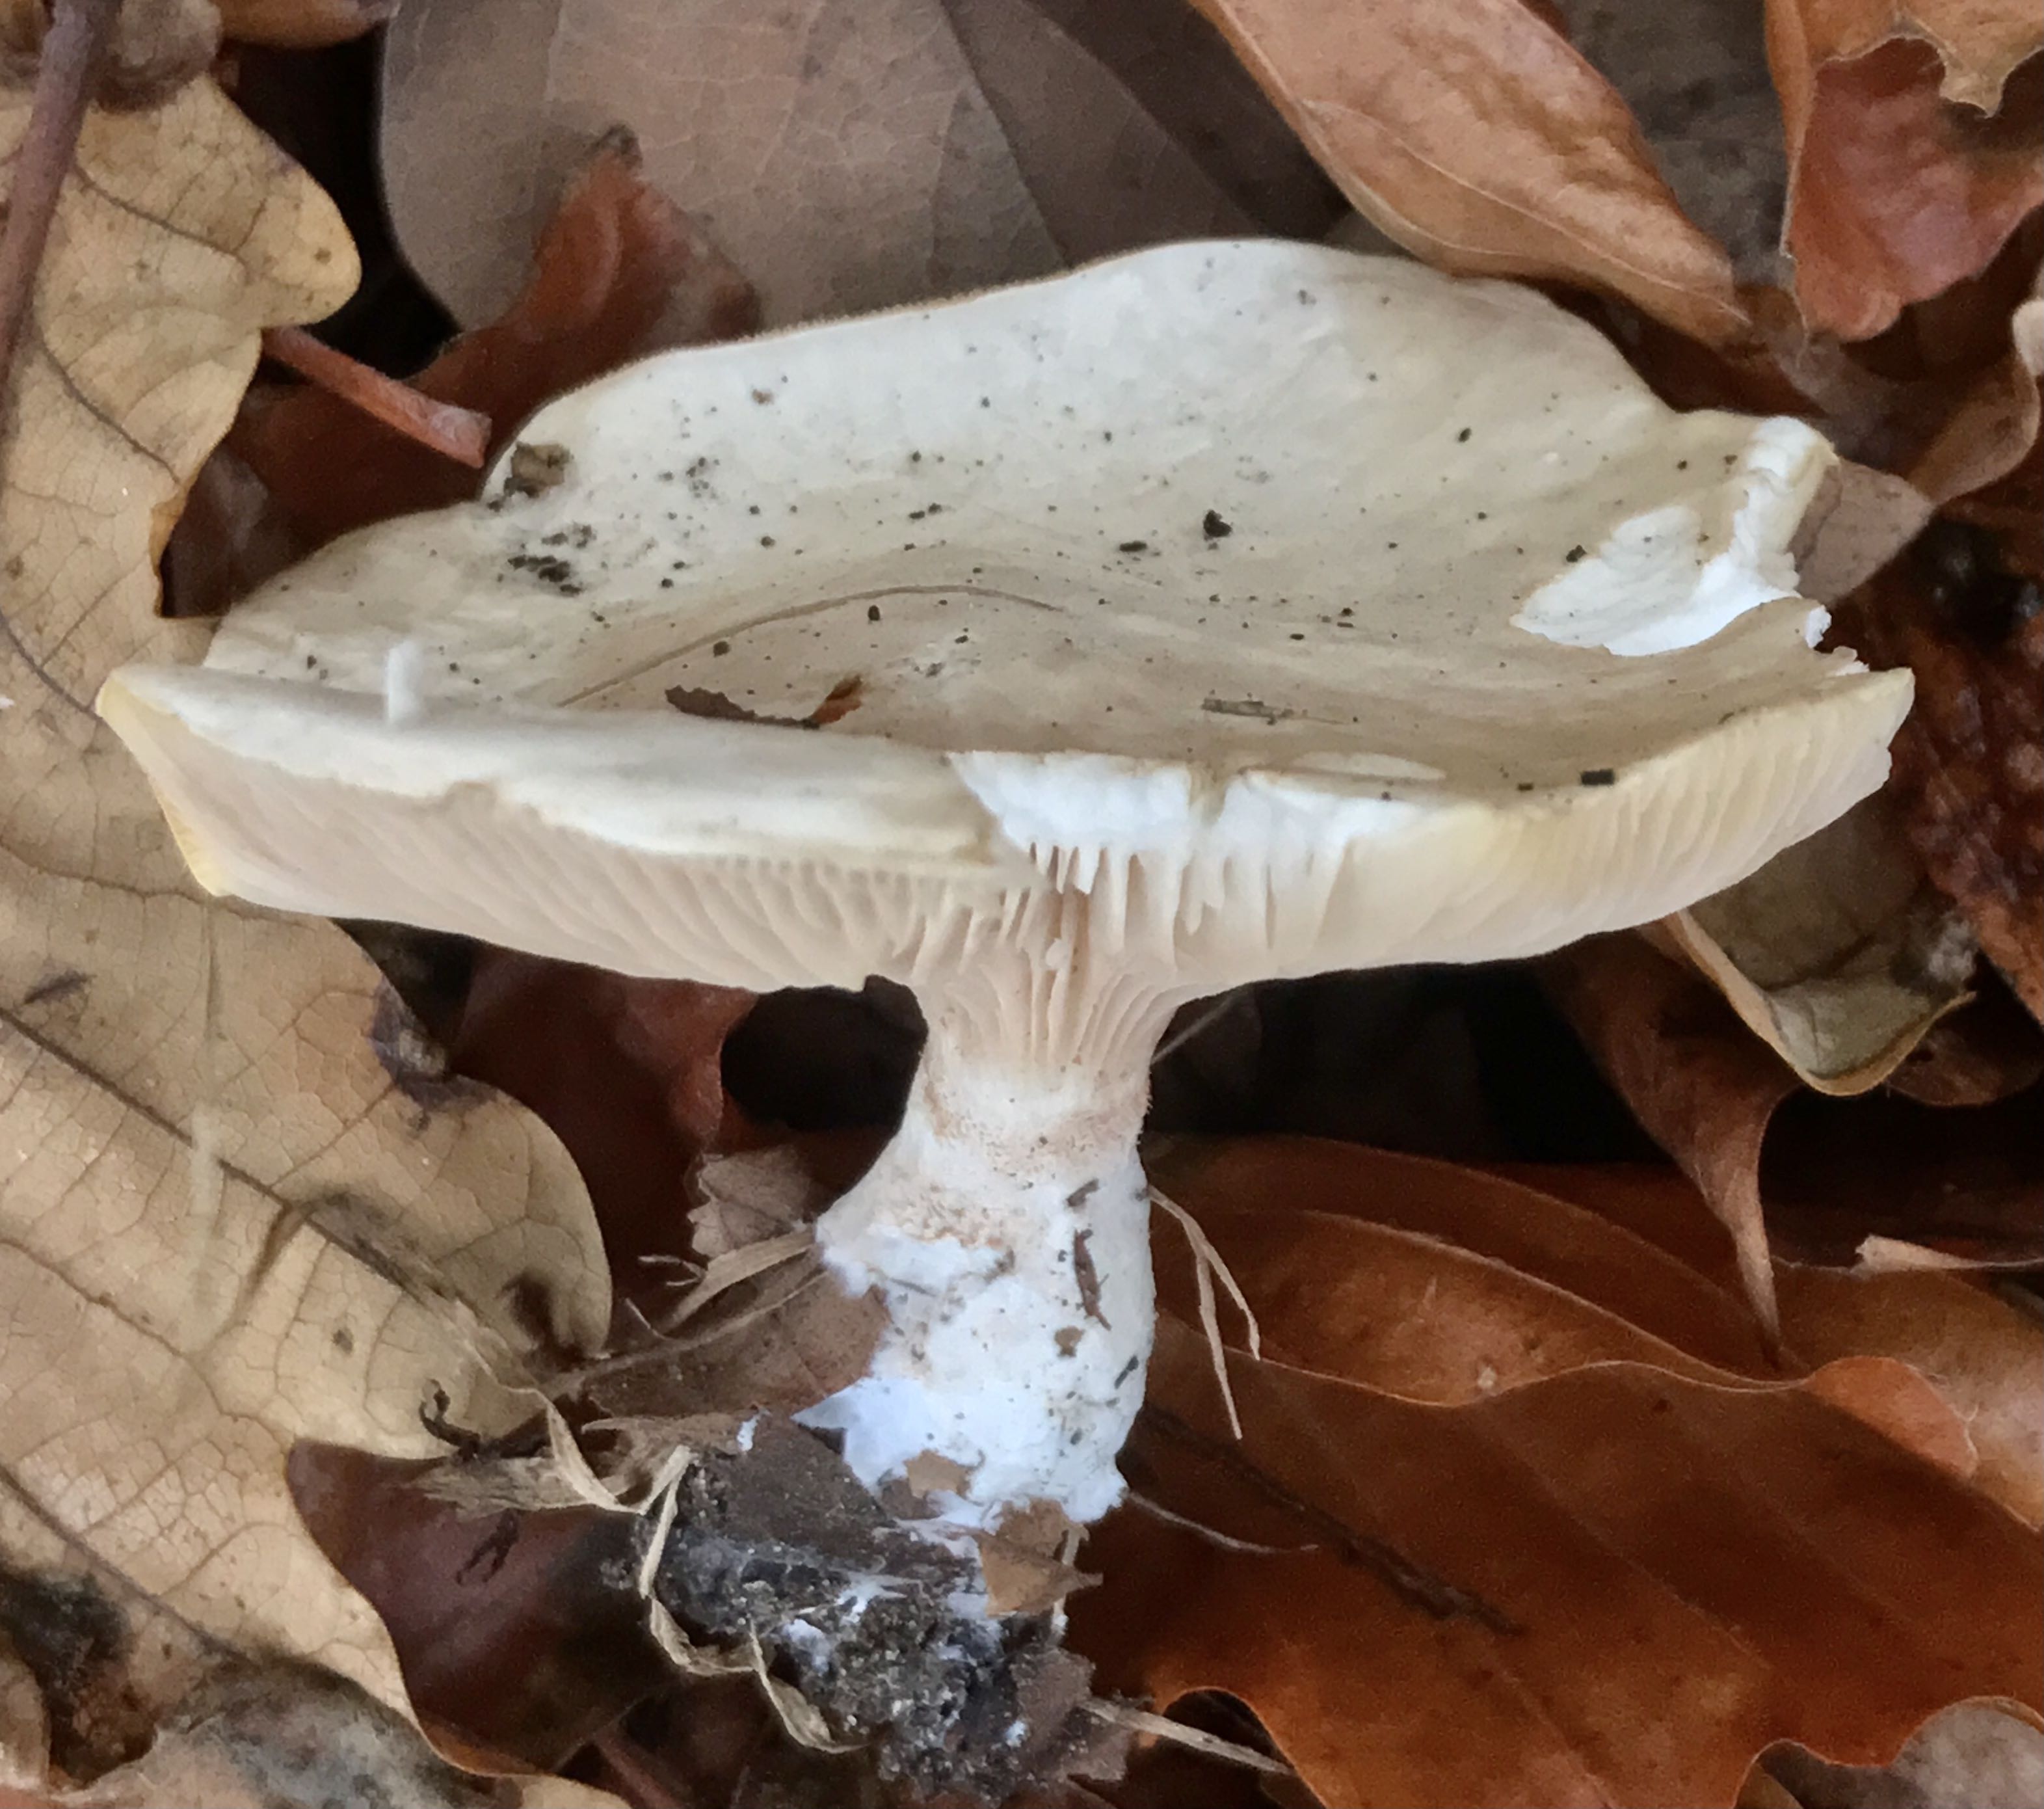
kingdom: Fungi
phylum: Basidiomycota
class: Agaricomycetes
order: Agaricales
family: Entolomataceae
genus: Clitopilus
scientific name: Clitopilus prunulus
